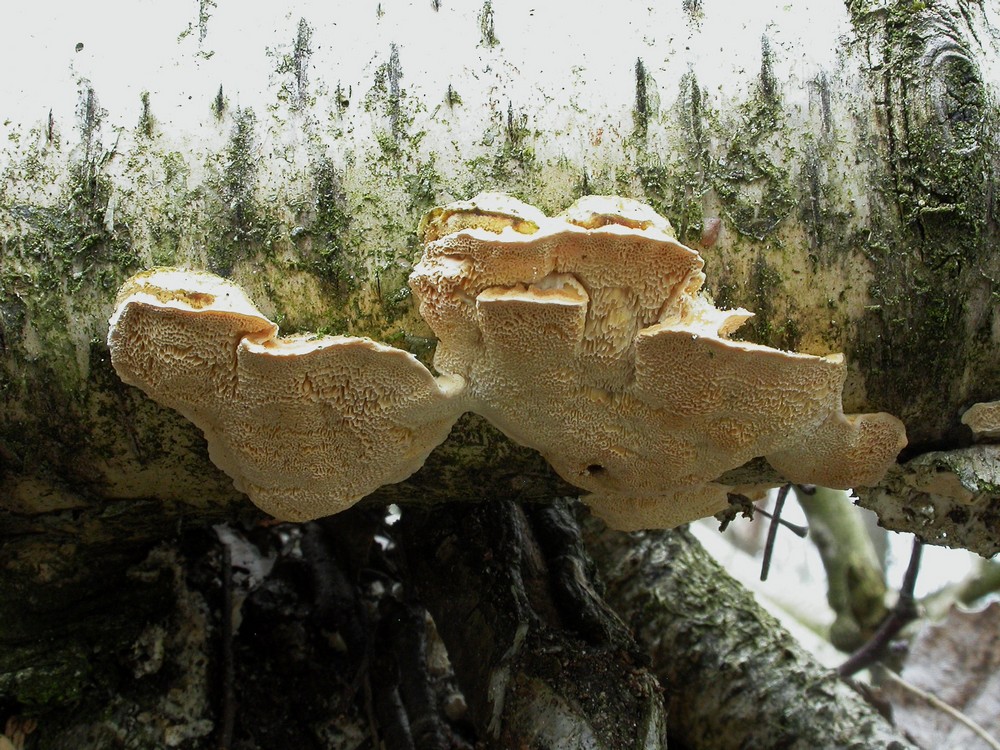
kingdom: Fungi
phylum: Basidiomycota
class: Agaricomycetes
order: Polyporales
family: Polyporaceae
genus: Trametes
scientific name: Trametes ochracea
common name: bæltet læderporesvamp
